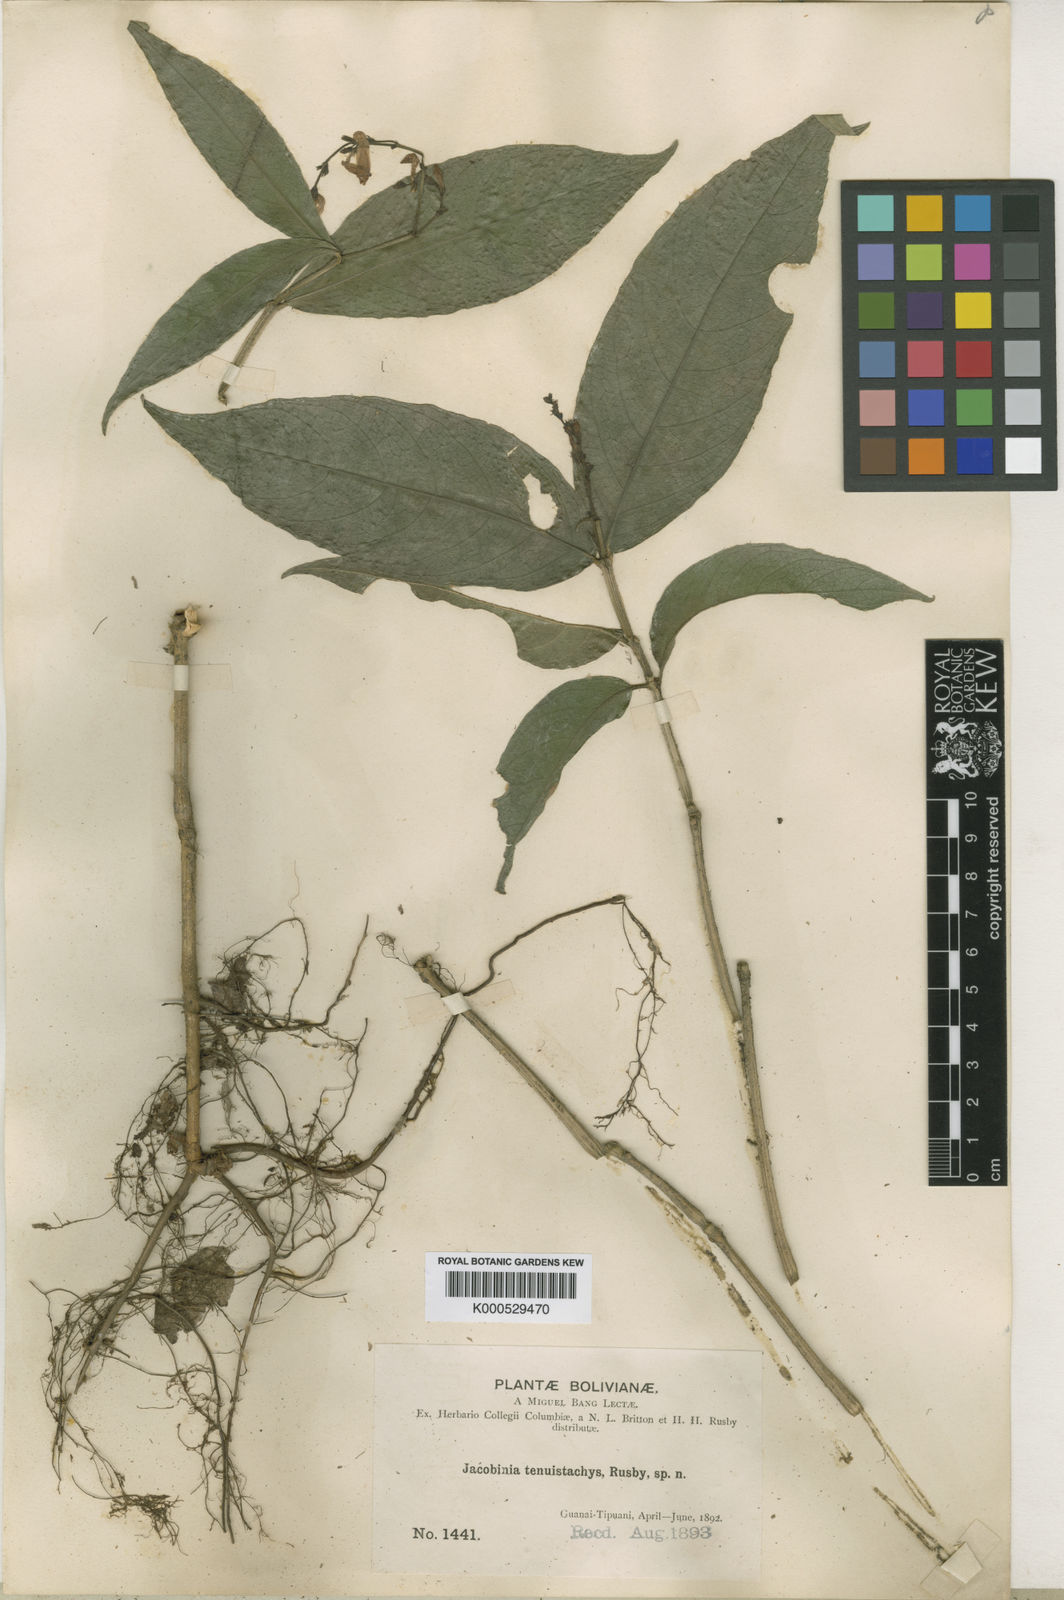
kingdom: Plantae
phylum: Tracheophyta
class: Magnoliopsida
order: Lamiales
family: Acanthaceae
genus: Justicia
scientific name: Justicia tenuistachys
